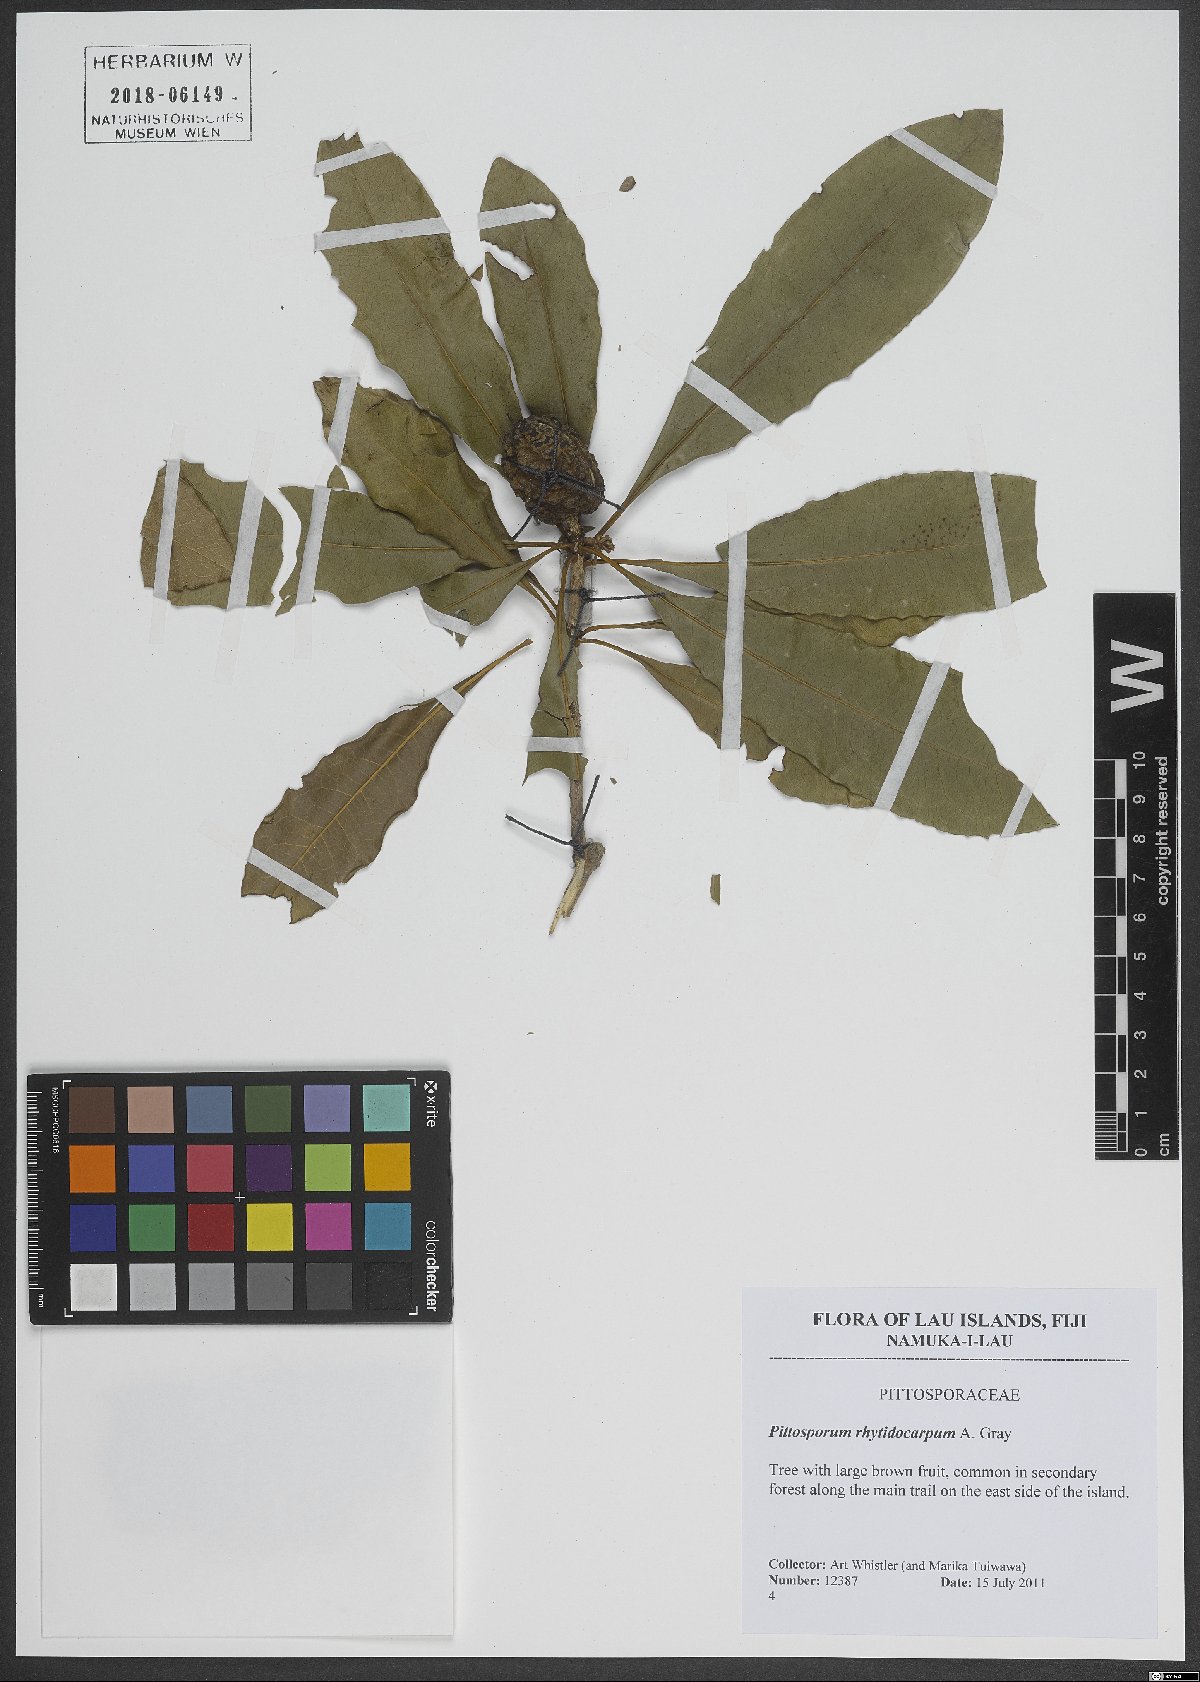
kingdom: Plantae
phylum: Tracheophyta
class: Magnoliopsida
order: Apiales
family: Pittosporaceae
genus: Pittosporum
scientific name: Pittosporum rhytidocarpum
